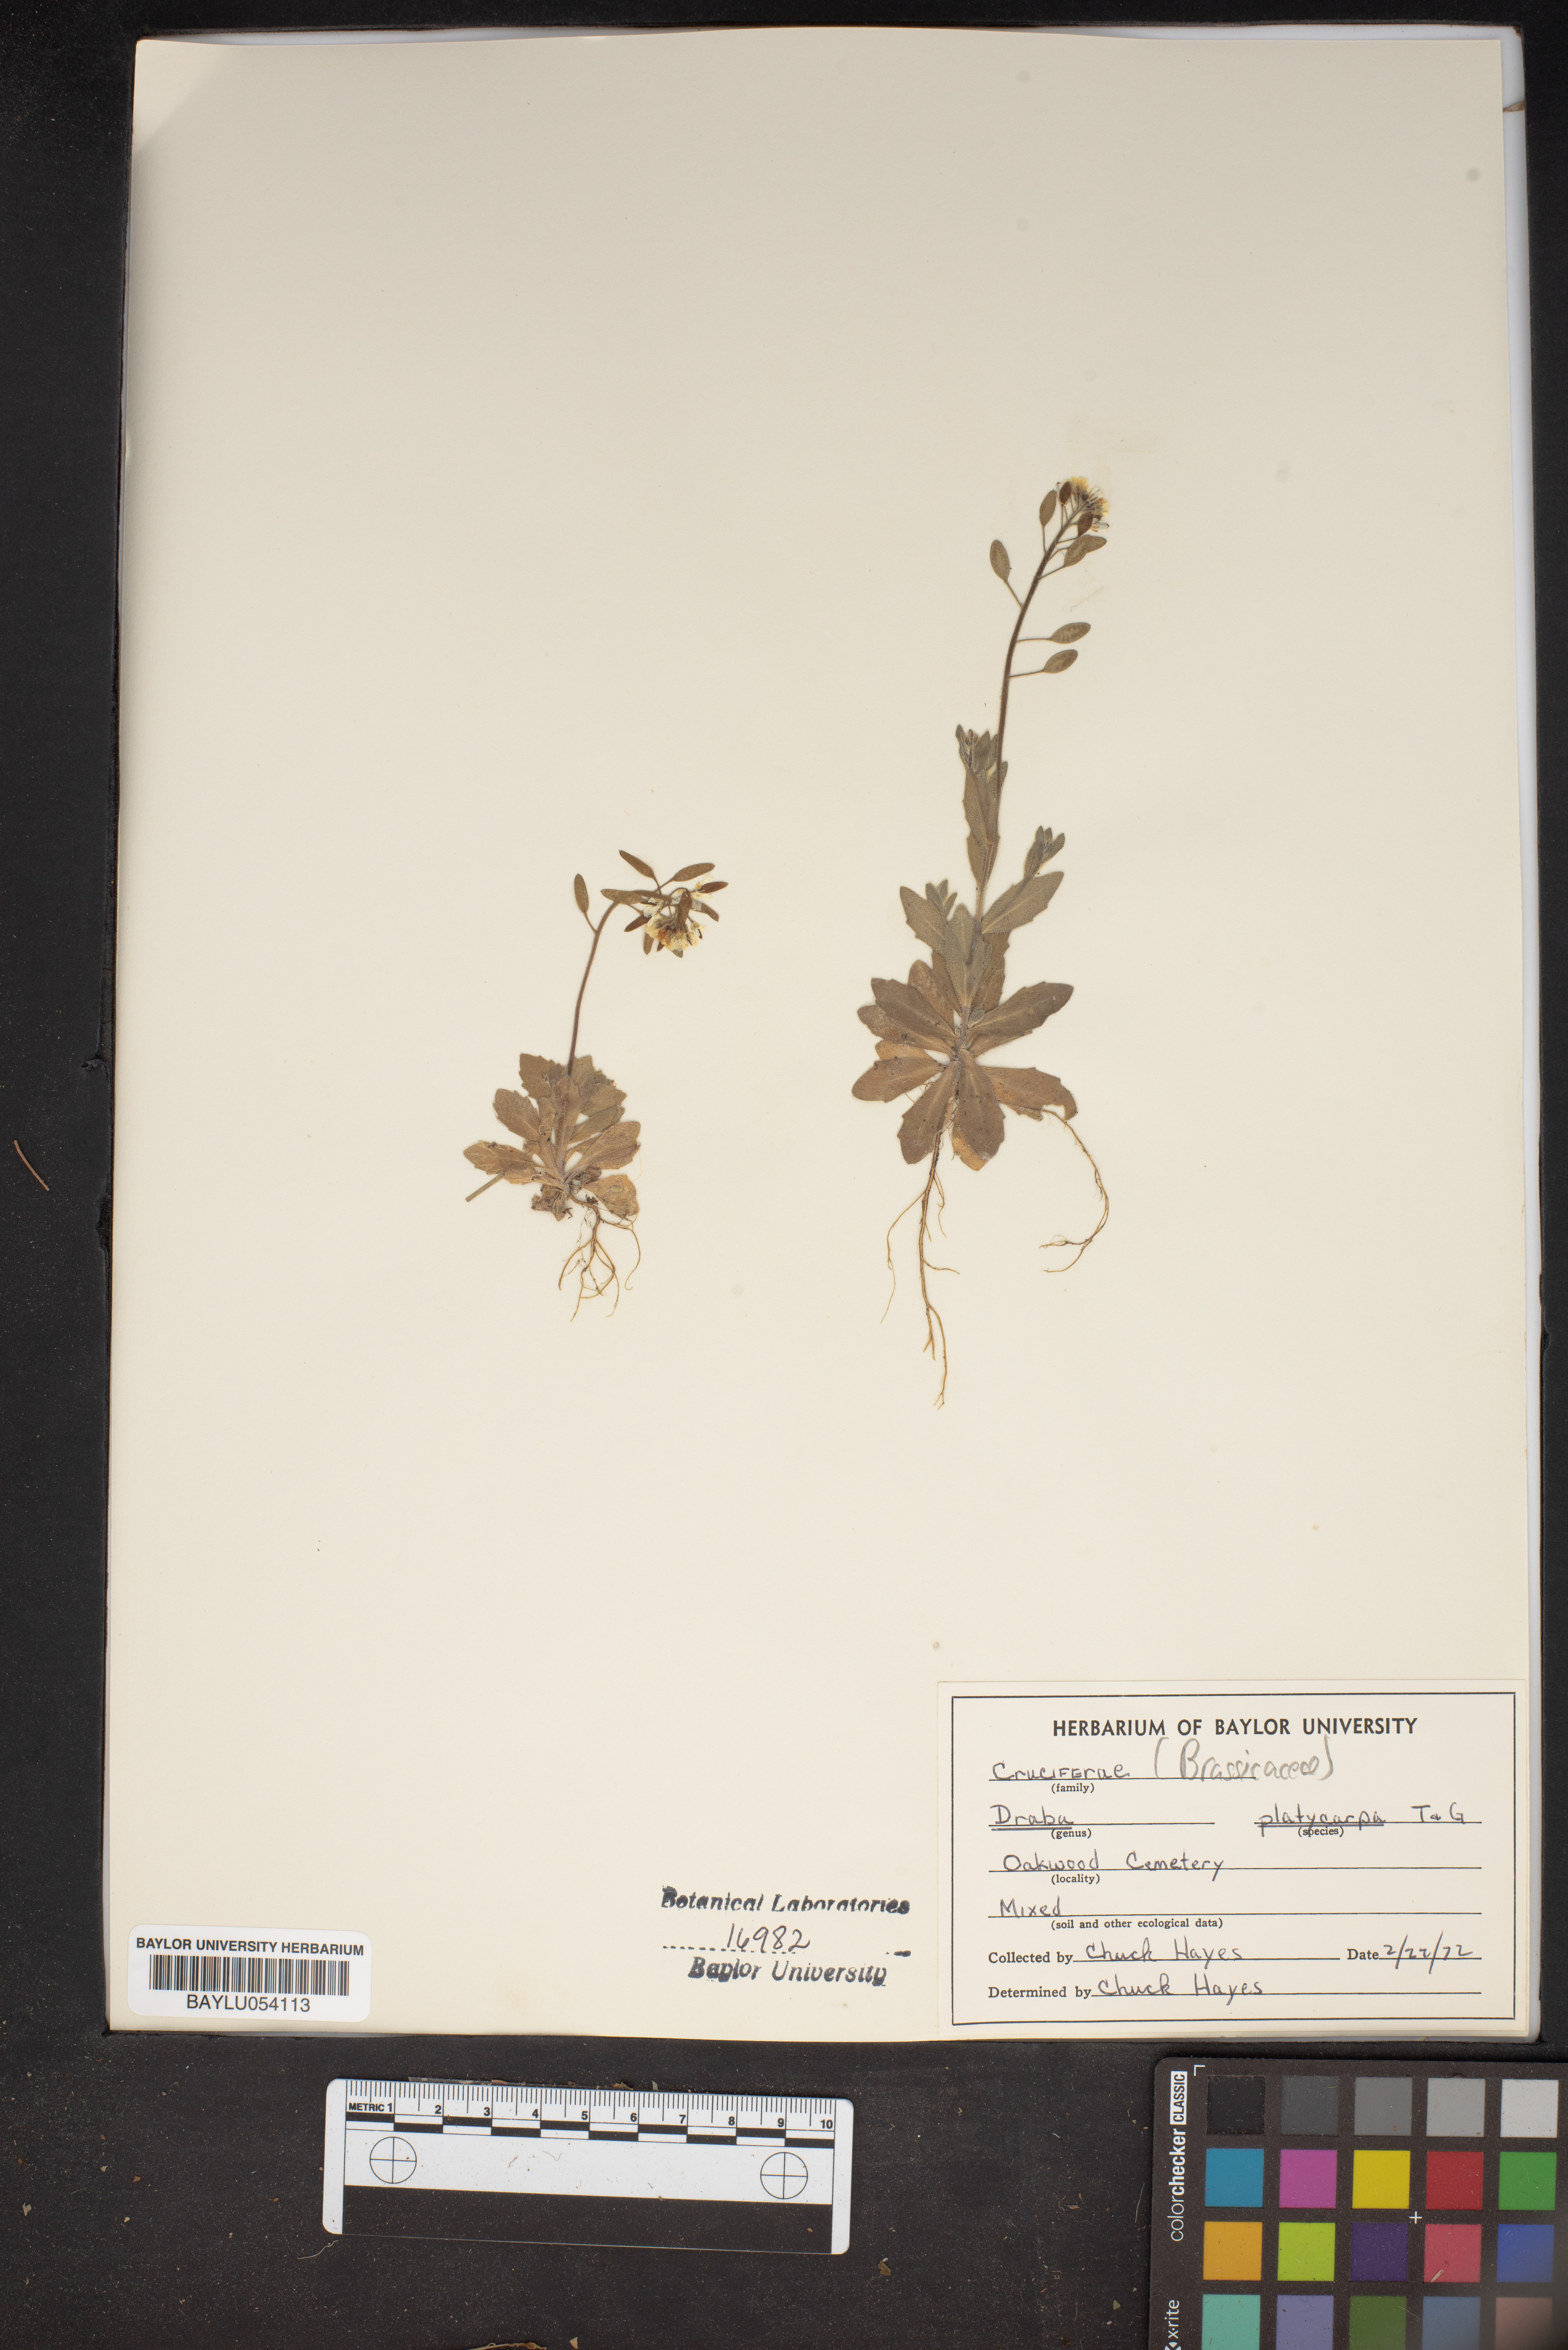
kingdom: Plantae
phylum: Tracheophyta
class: Magnoliopsida
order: Brassicales
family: Brassicaceae
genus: Tomostima
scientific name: Tomostima platycarpa
